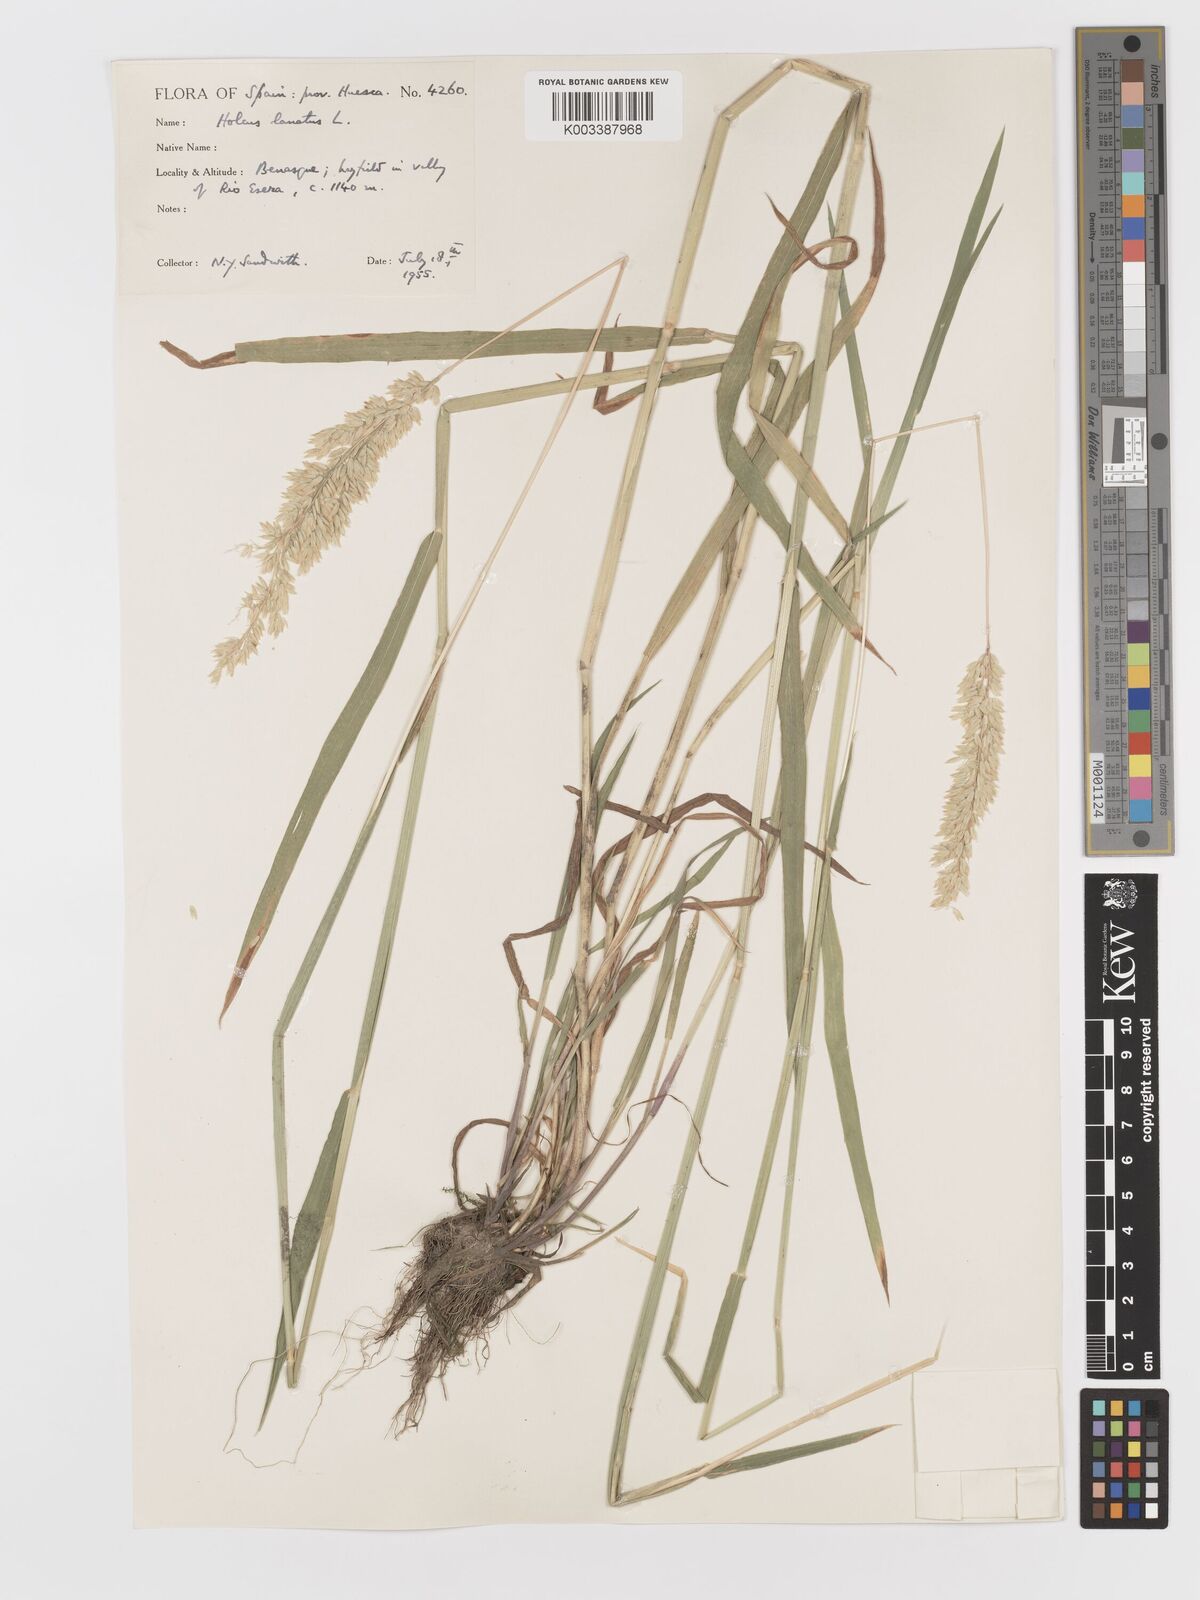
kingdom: Plantae
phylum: Tracheophyta
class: Liliopsida
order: Poales
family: Poaceae
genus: Holcus
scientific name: Holcus lanatus
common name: Yorkshire-fog
